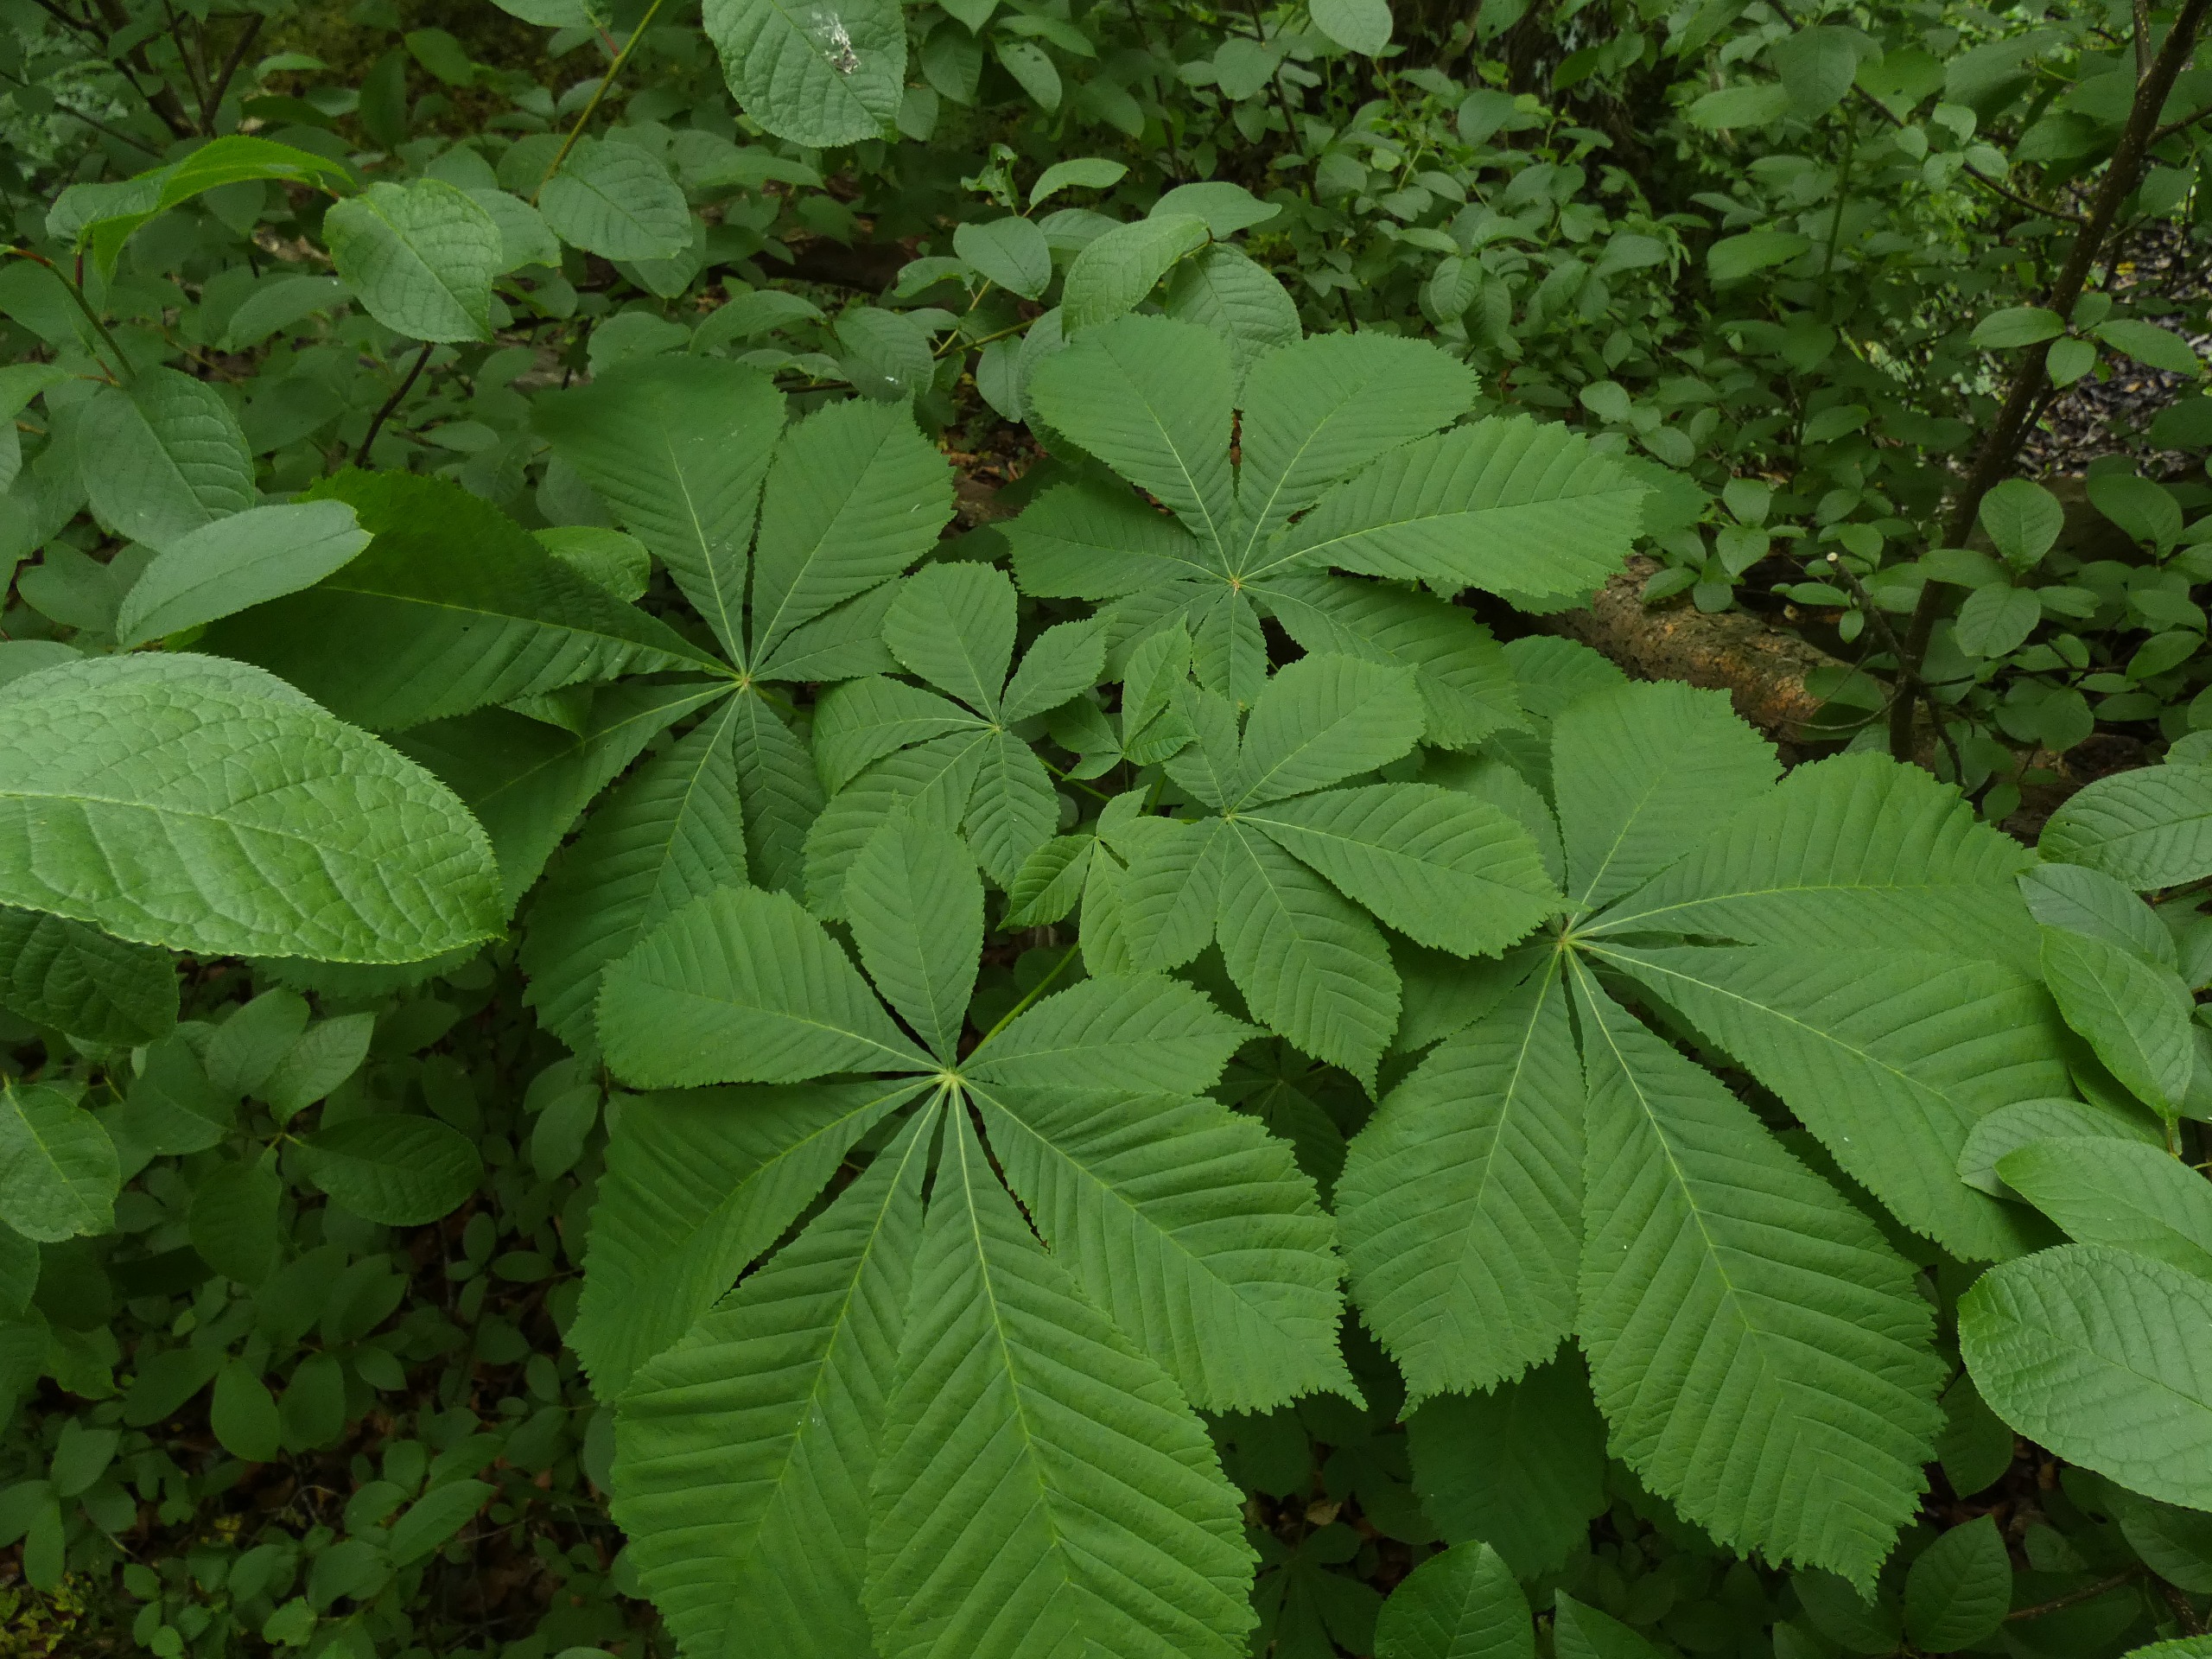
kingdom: Plantae
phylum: Tracheophyta
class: Magnoliopsida
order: Sapindales
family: Sapindaceae
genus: Aesculus
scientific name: Aesculus hippocastanum
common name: Hestekastanie
